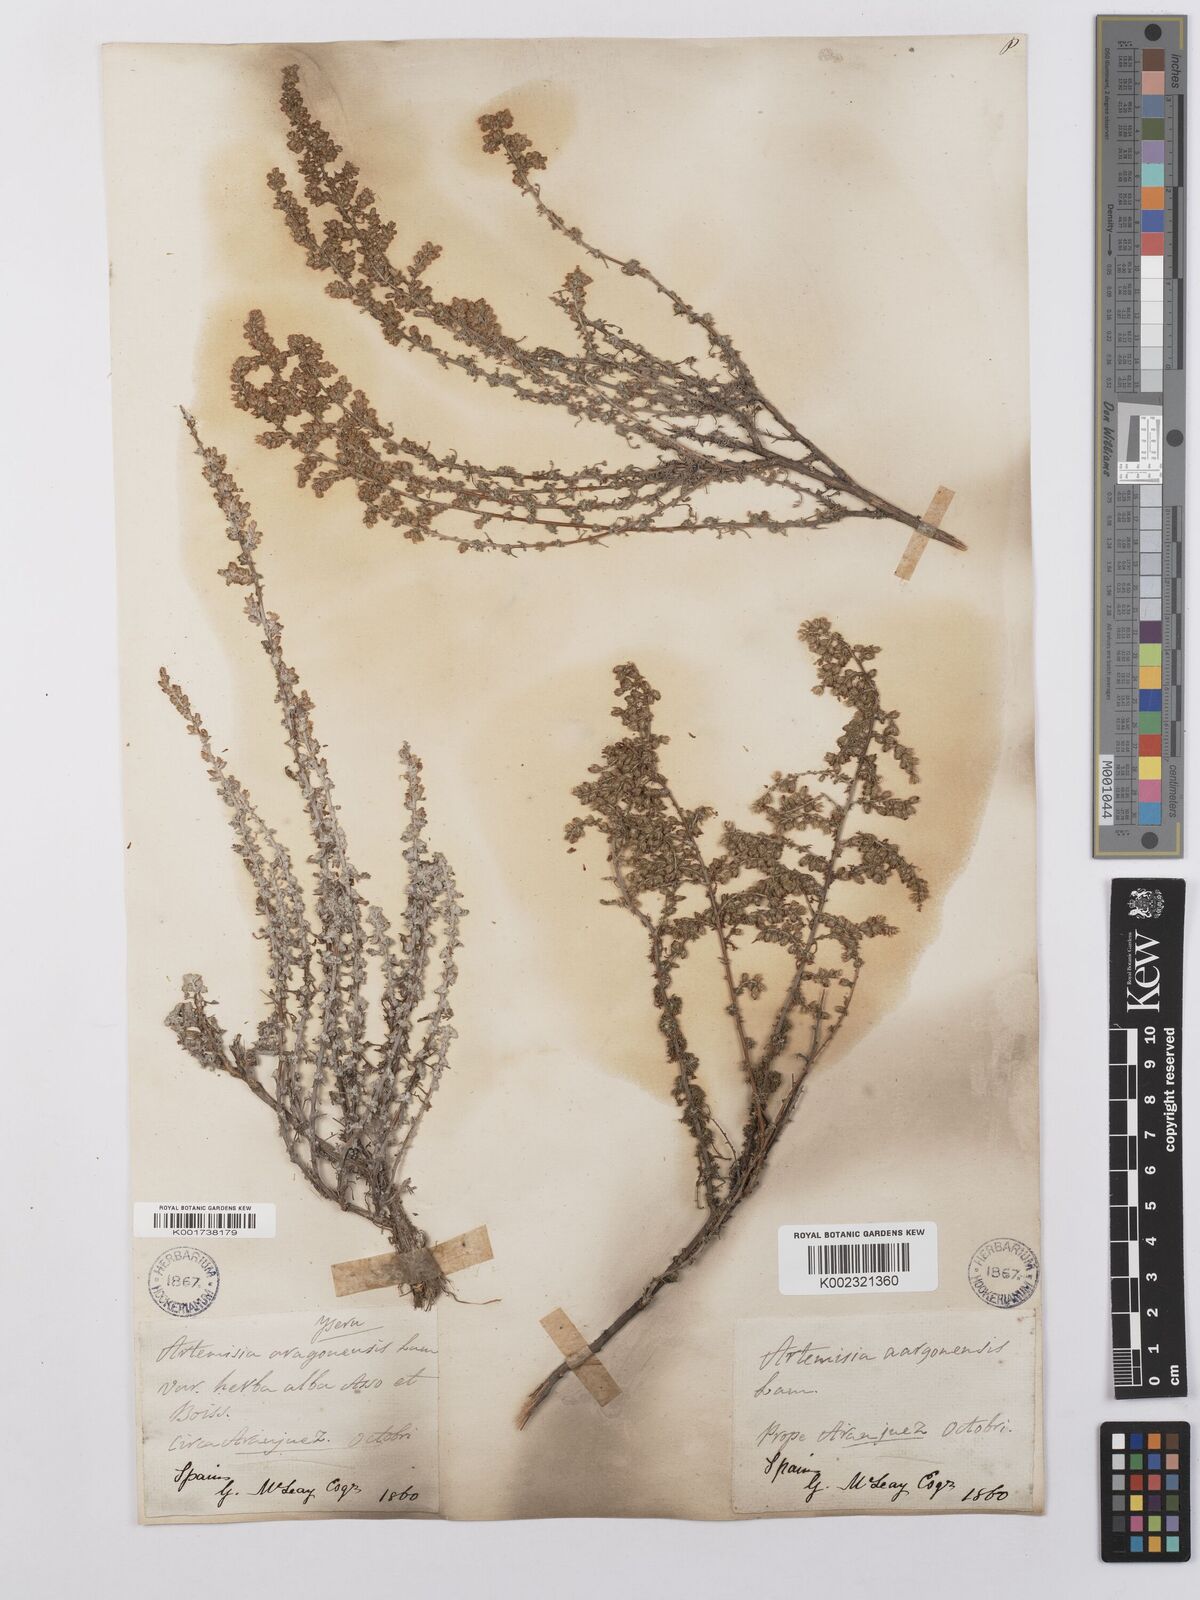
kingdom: Plantae
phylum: Tracheophyta
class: Magnoliopsida
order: Asterales
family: Asteraceae
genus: Artemisia
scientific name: Artemisia herba-alba
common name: White wormwood
